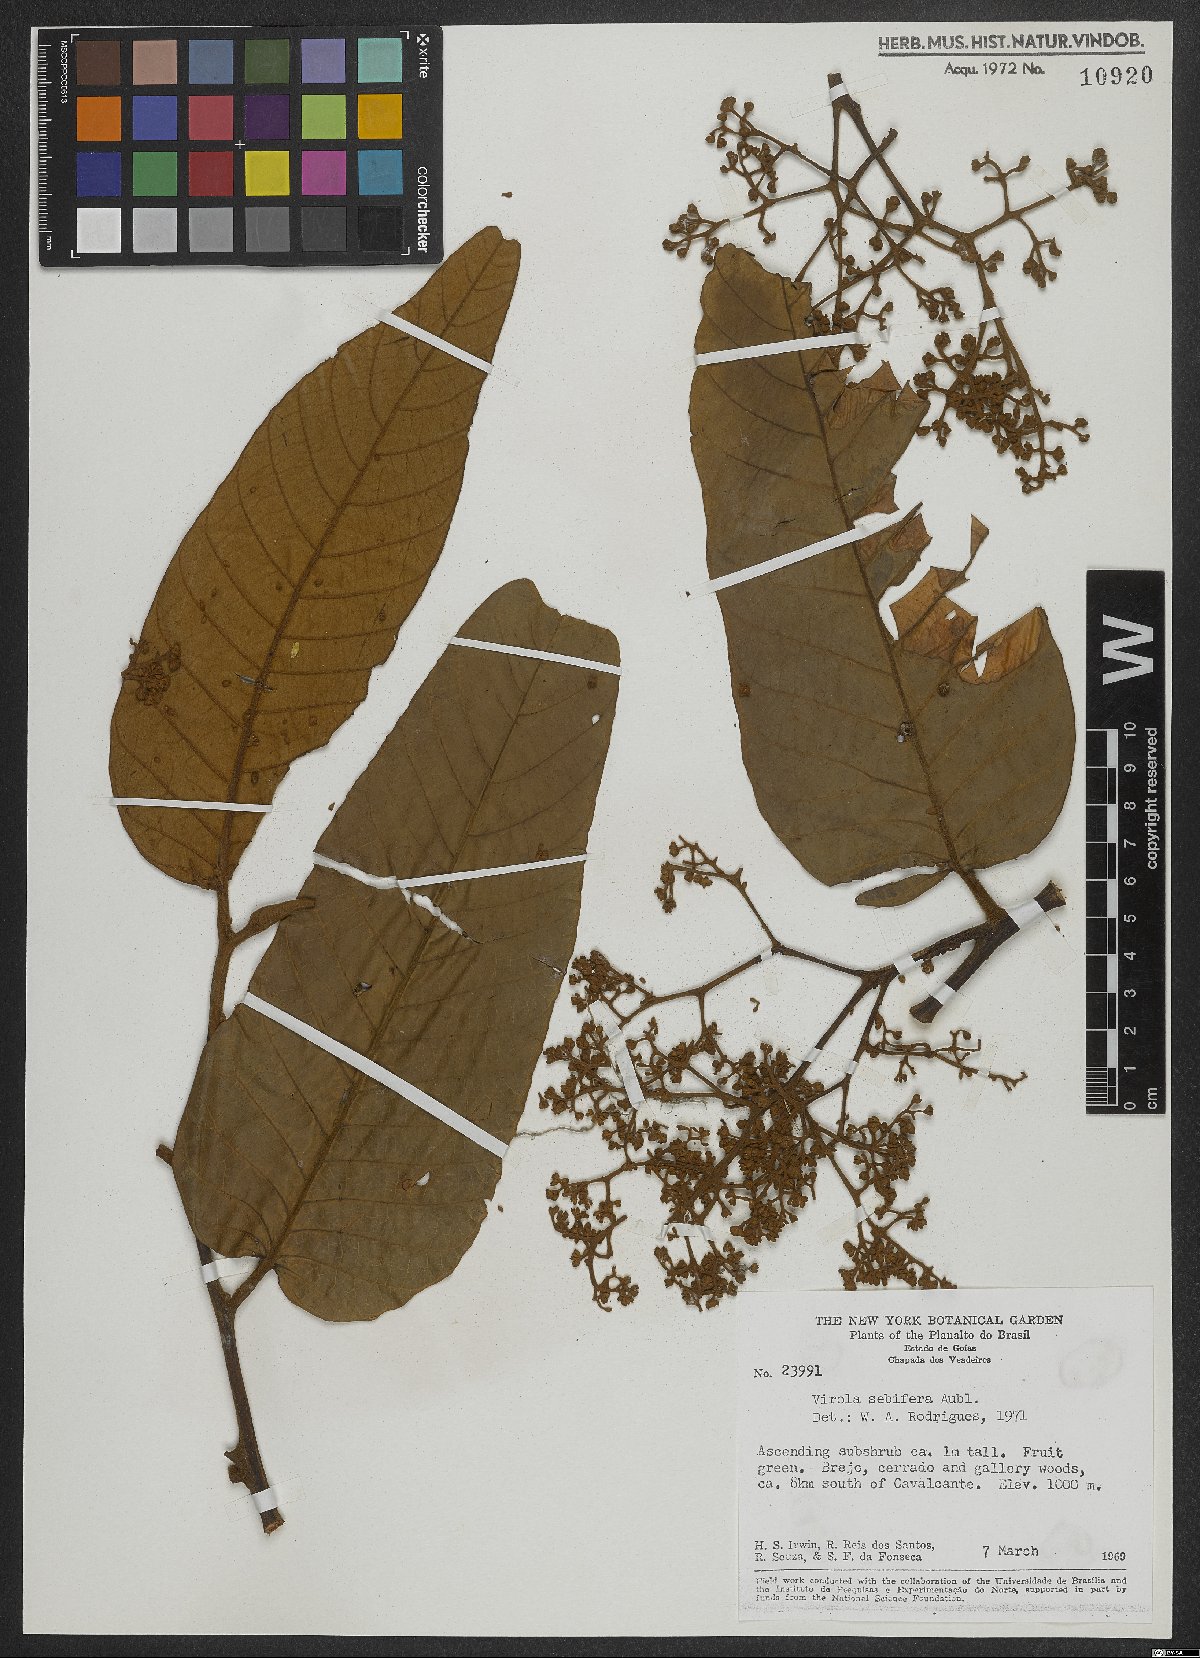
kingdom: Plantae
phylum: Tracheophyta
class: Magnoliopsida
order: Magnoliales
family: Myristicaceae
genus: Virola
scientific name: Virola sebifera
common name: Red ucuuba
